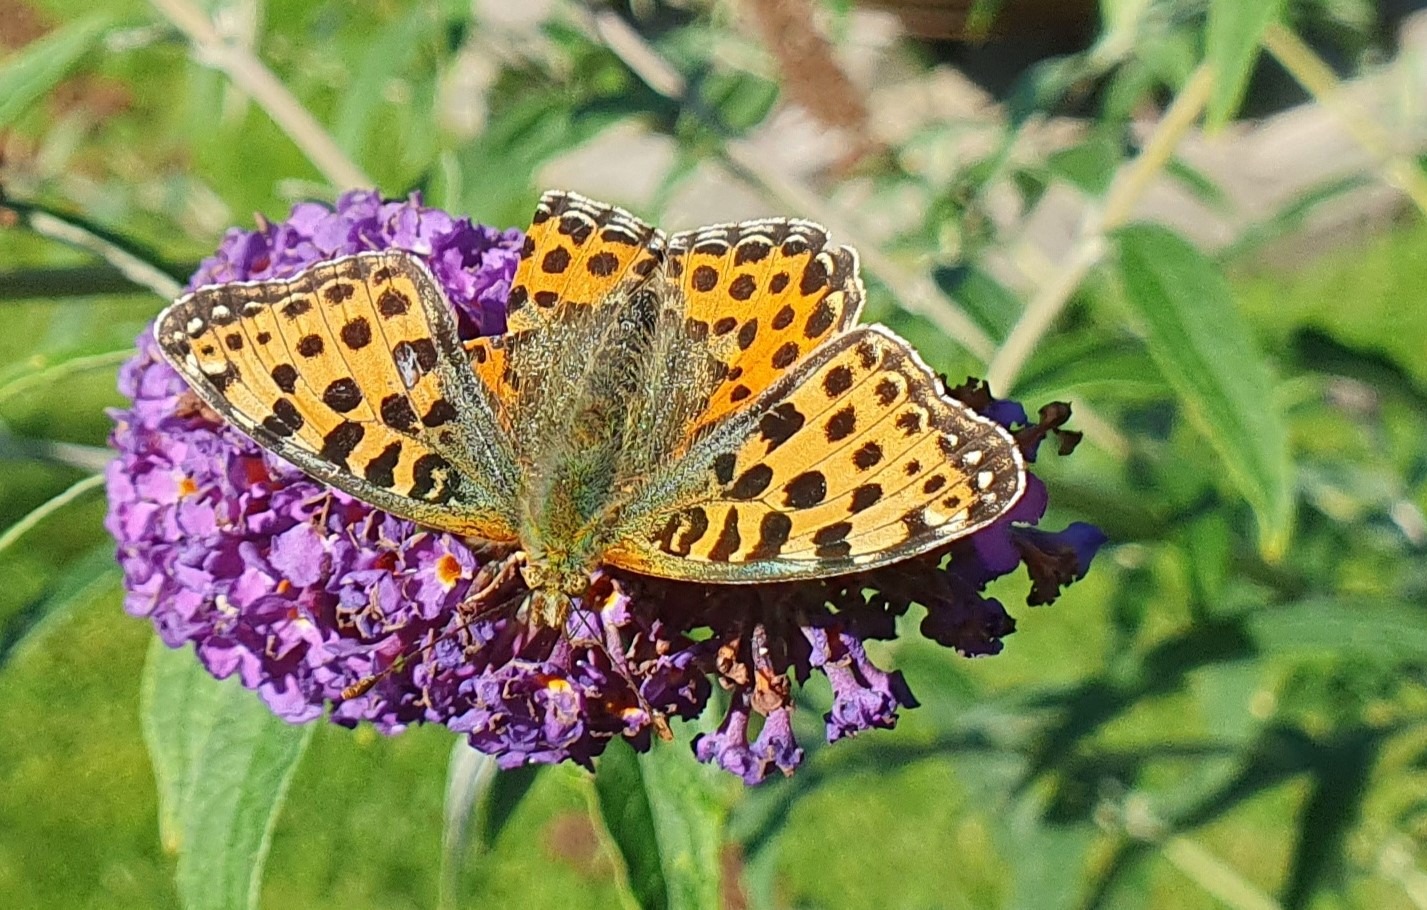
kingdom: Animalia
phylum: Arthropoda
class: Insecta
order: Lepidoptera
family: Nymphalidae
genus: Issoria
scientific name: Issoria lathonia
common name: Storplettet perlemorsommerfugl
